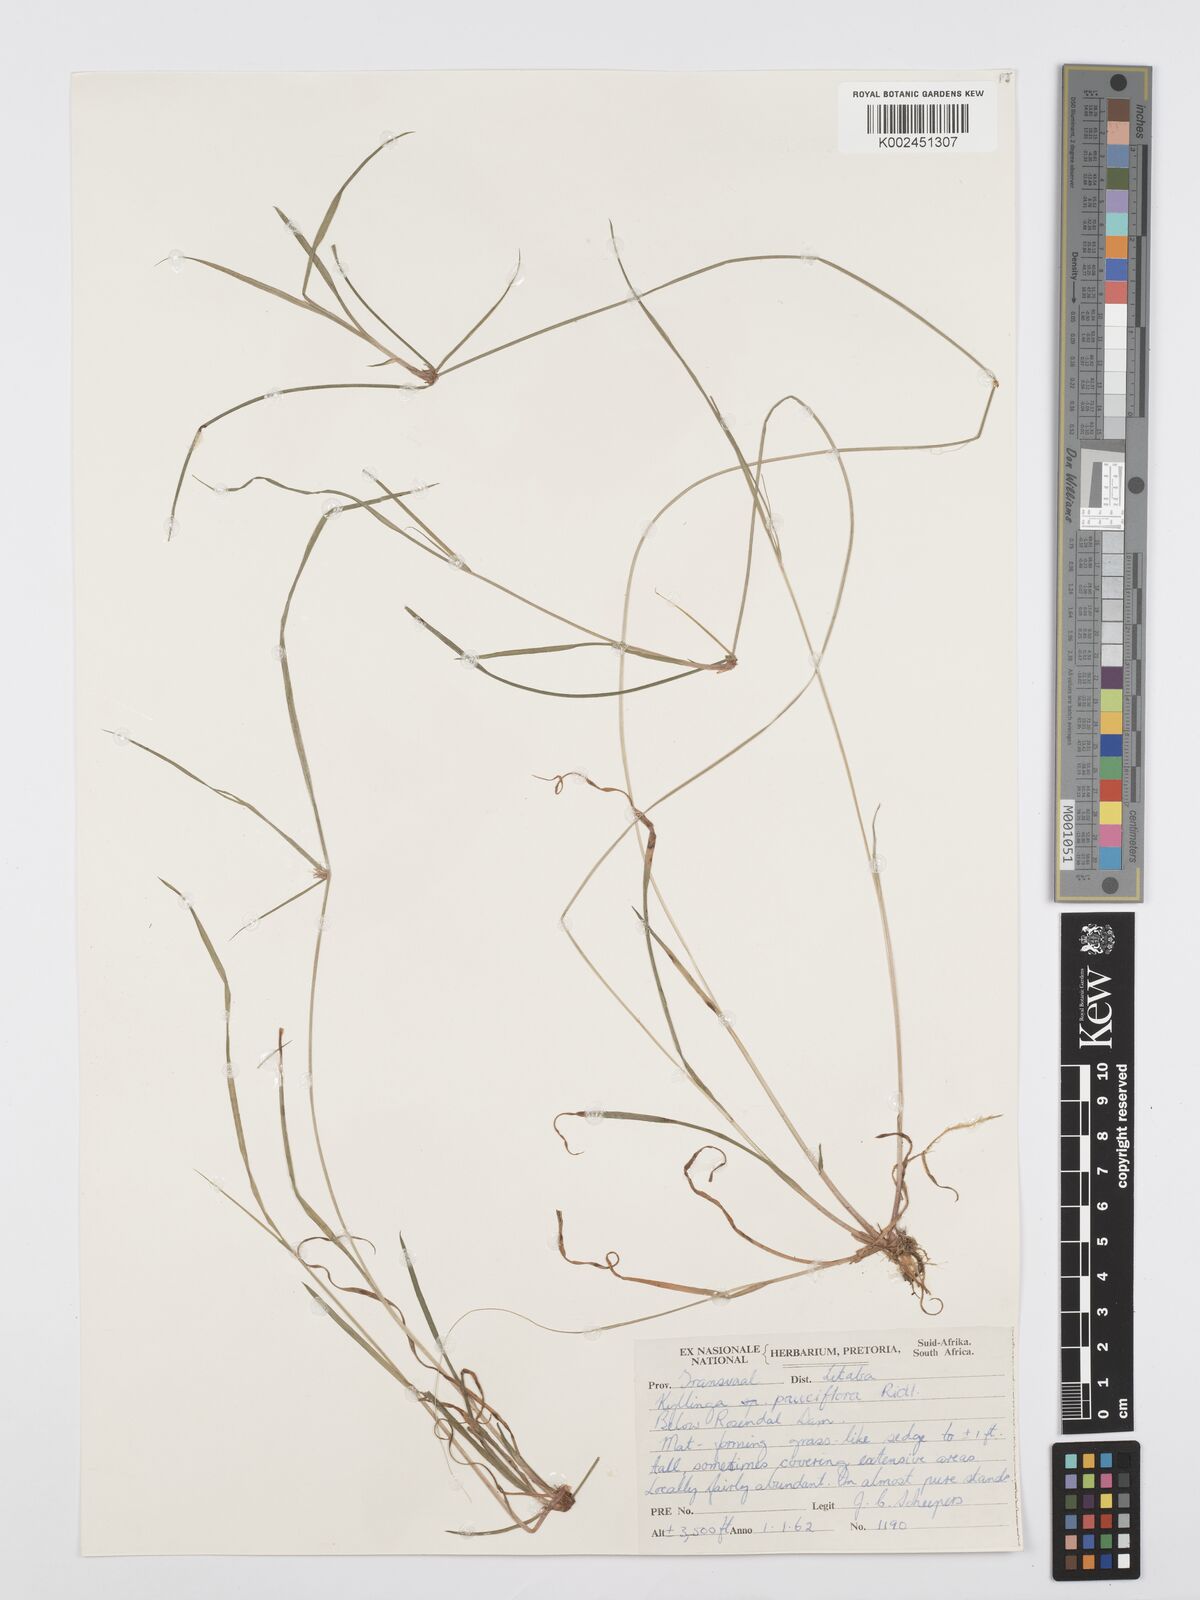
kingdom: Plantae
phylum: Tracheophyta
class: Liliopsida
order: Poales
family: Cyperaceae
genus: Cyperus
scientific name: Cyperus
